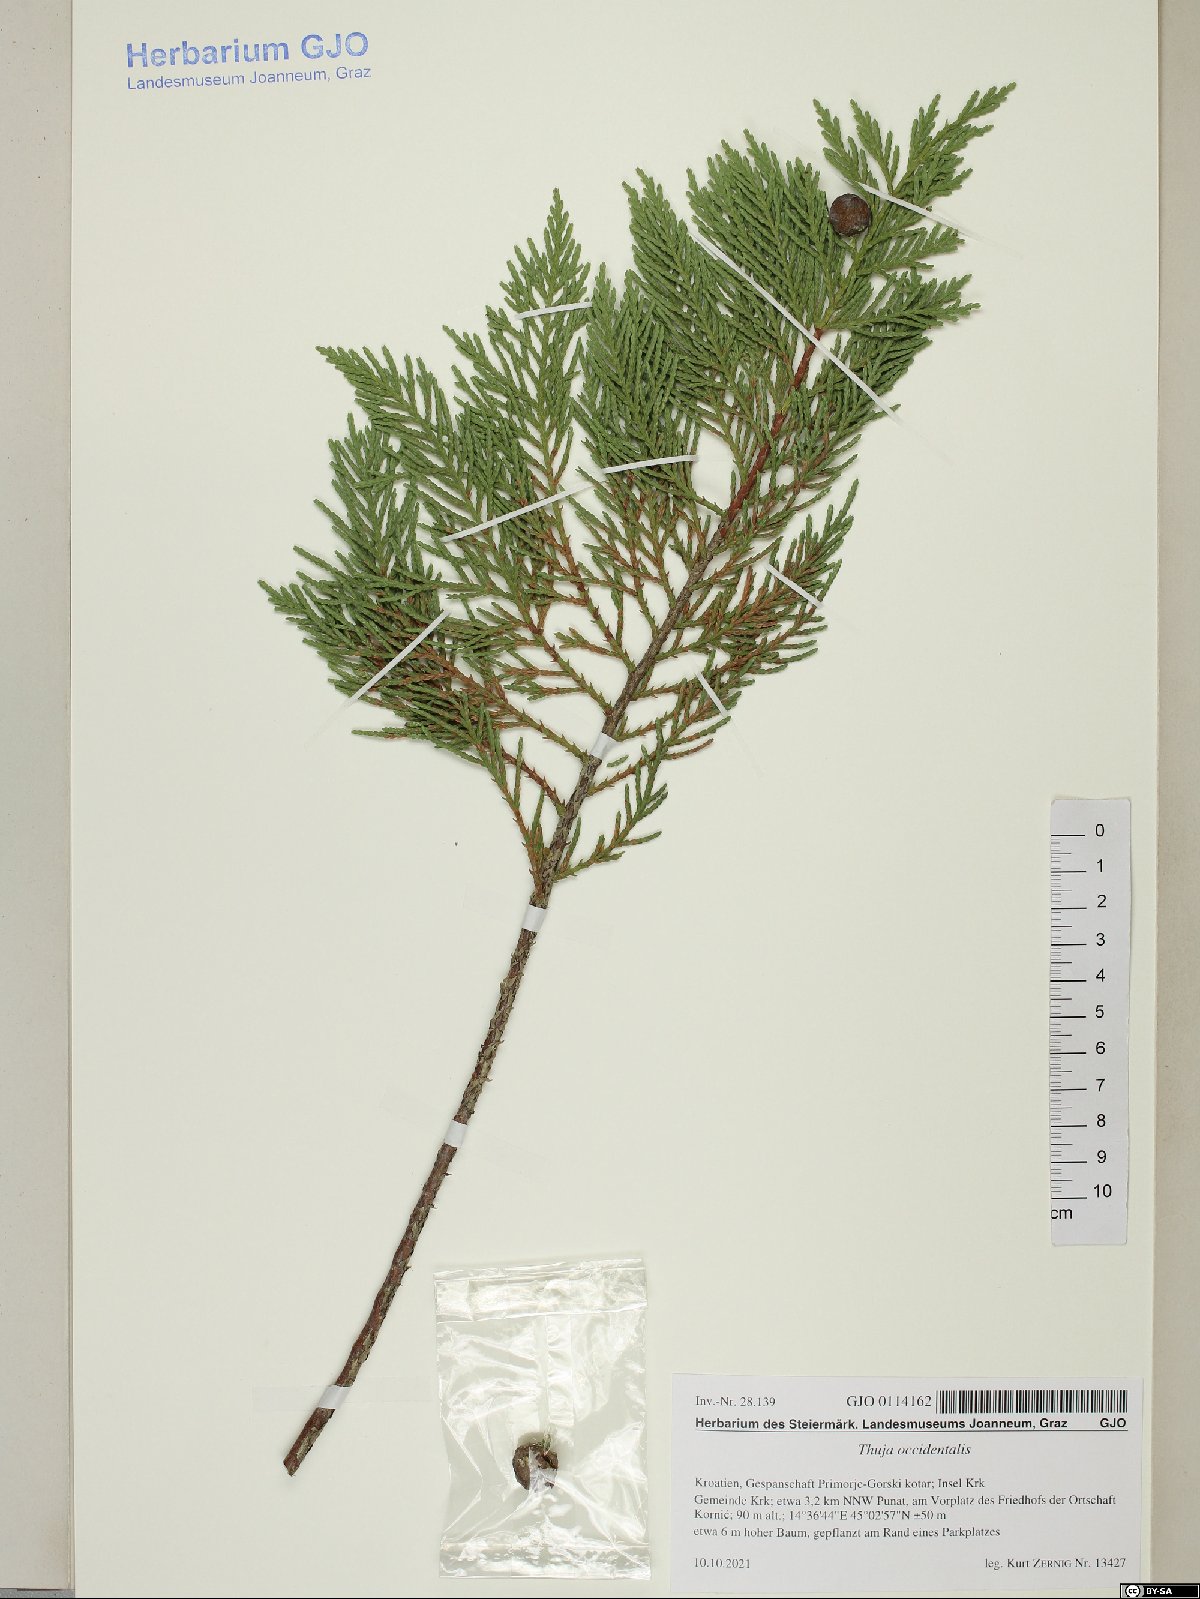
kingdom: Plantae
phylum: Tracheophyta
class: Pinopsida
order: Pinales
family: Cupressaceae
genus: Thuja
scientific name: Thuja occidentalis
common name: Northern white-cedar
